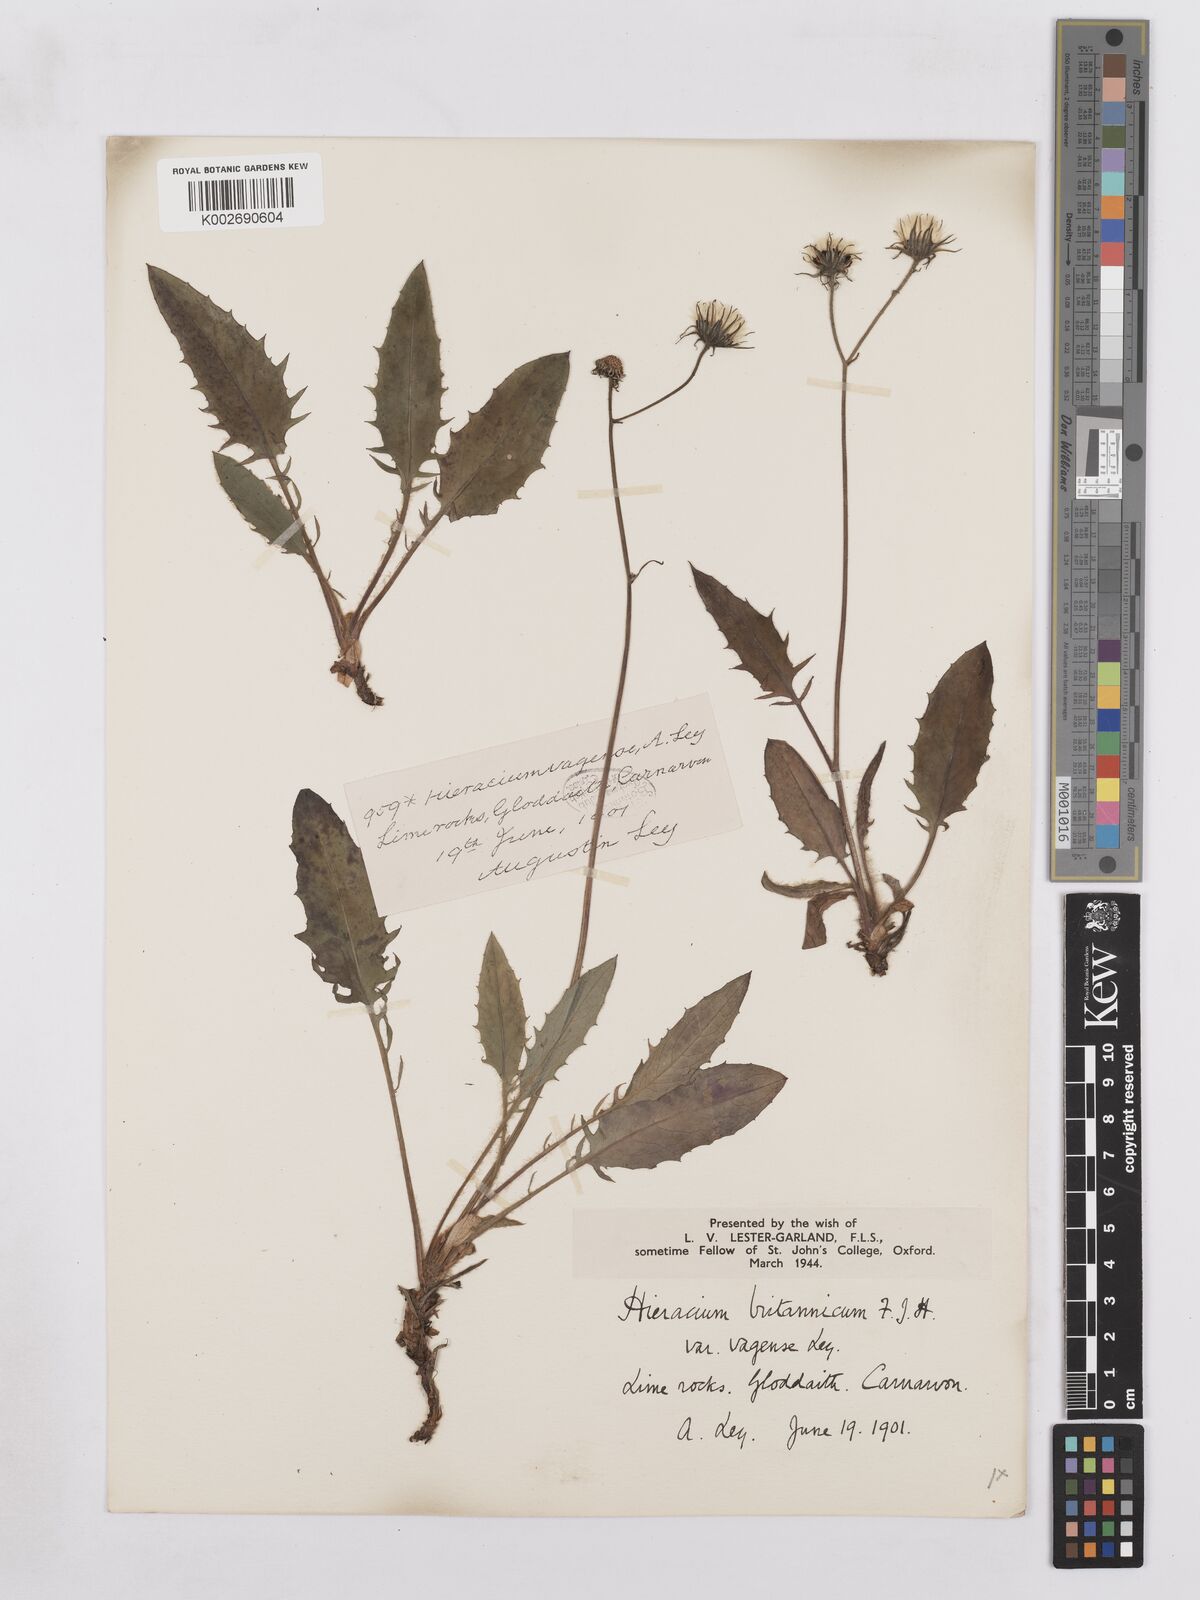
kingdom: Plantae
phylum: Tracheophyta
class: Magnoliopsida
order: Asterales
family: Asteraceae
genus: Hieracium
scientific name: Hieracium britannicum
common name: British hawkweed
